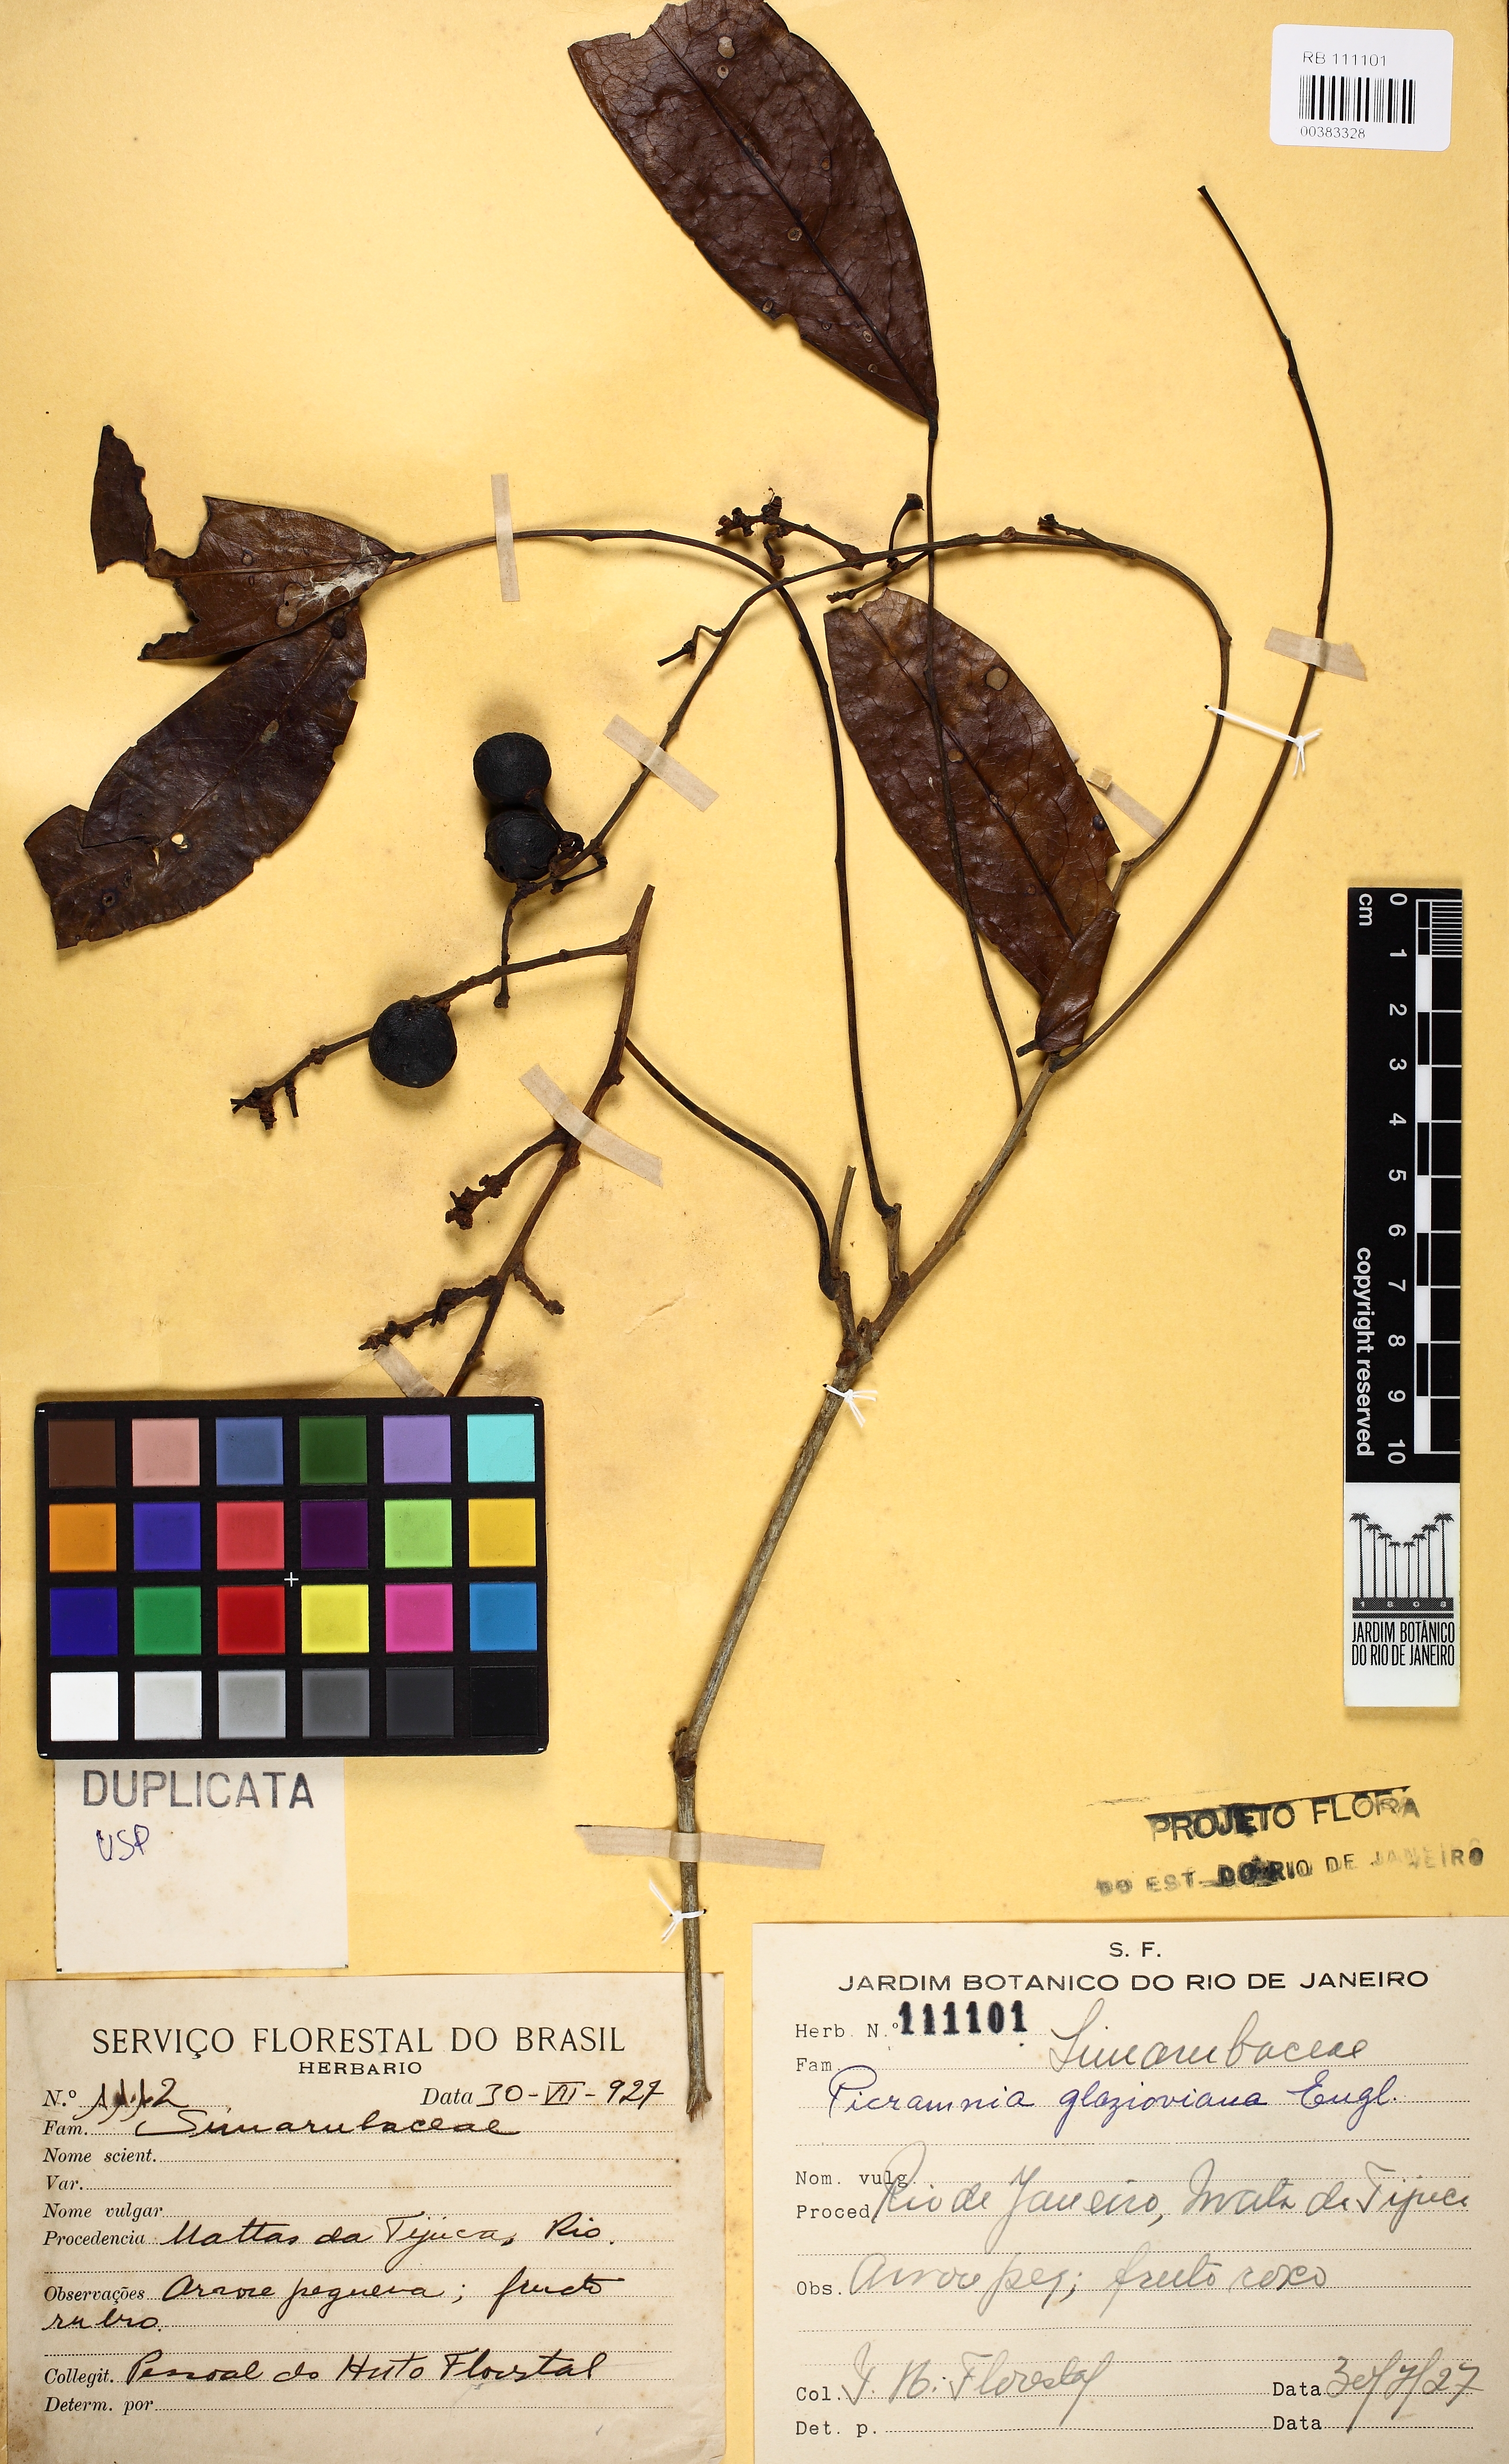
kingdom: Plantae
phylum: Tracheophyta
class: Magnoliopsida
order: Picramniales
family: Picramniaceae
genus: Picramnia
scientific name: Picramnia glazioviana
